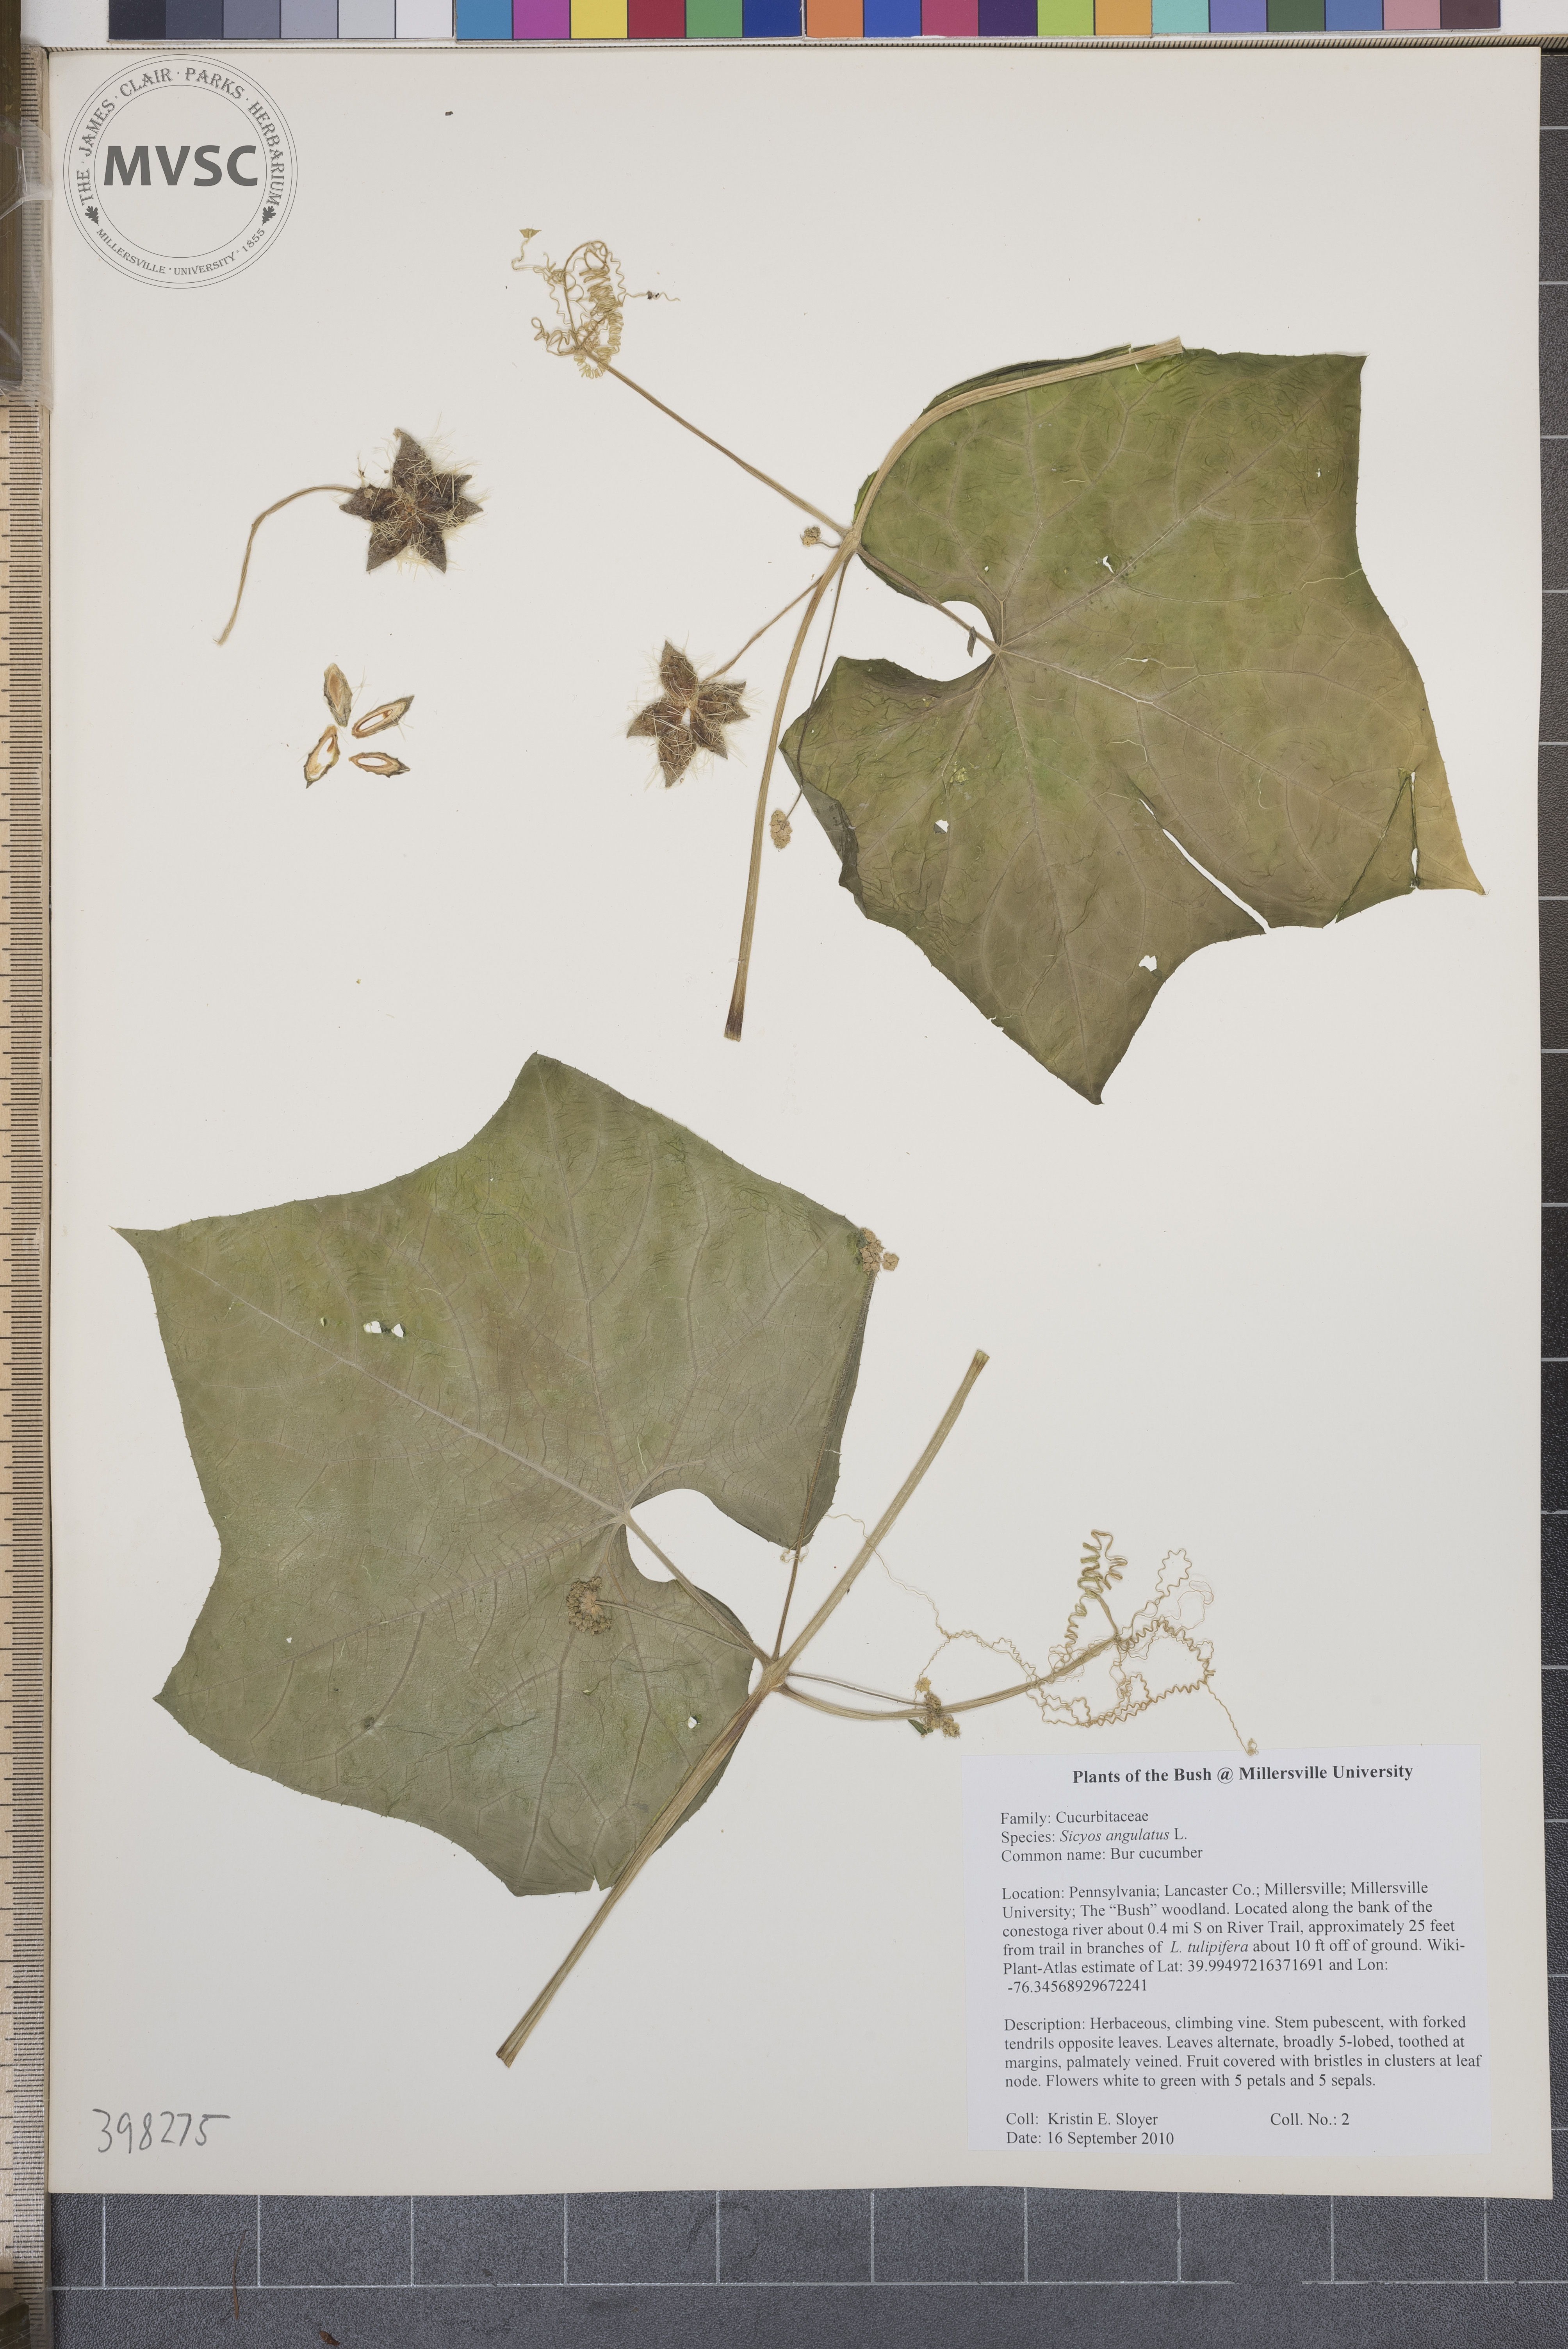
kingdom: Plantae
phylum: Tracheophyta
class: Magnoliopsida
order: Cucurbitales
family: Cucurbitaceae
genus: Sicyos
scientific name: Sicyos angulatus
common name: Bur cucumber
